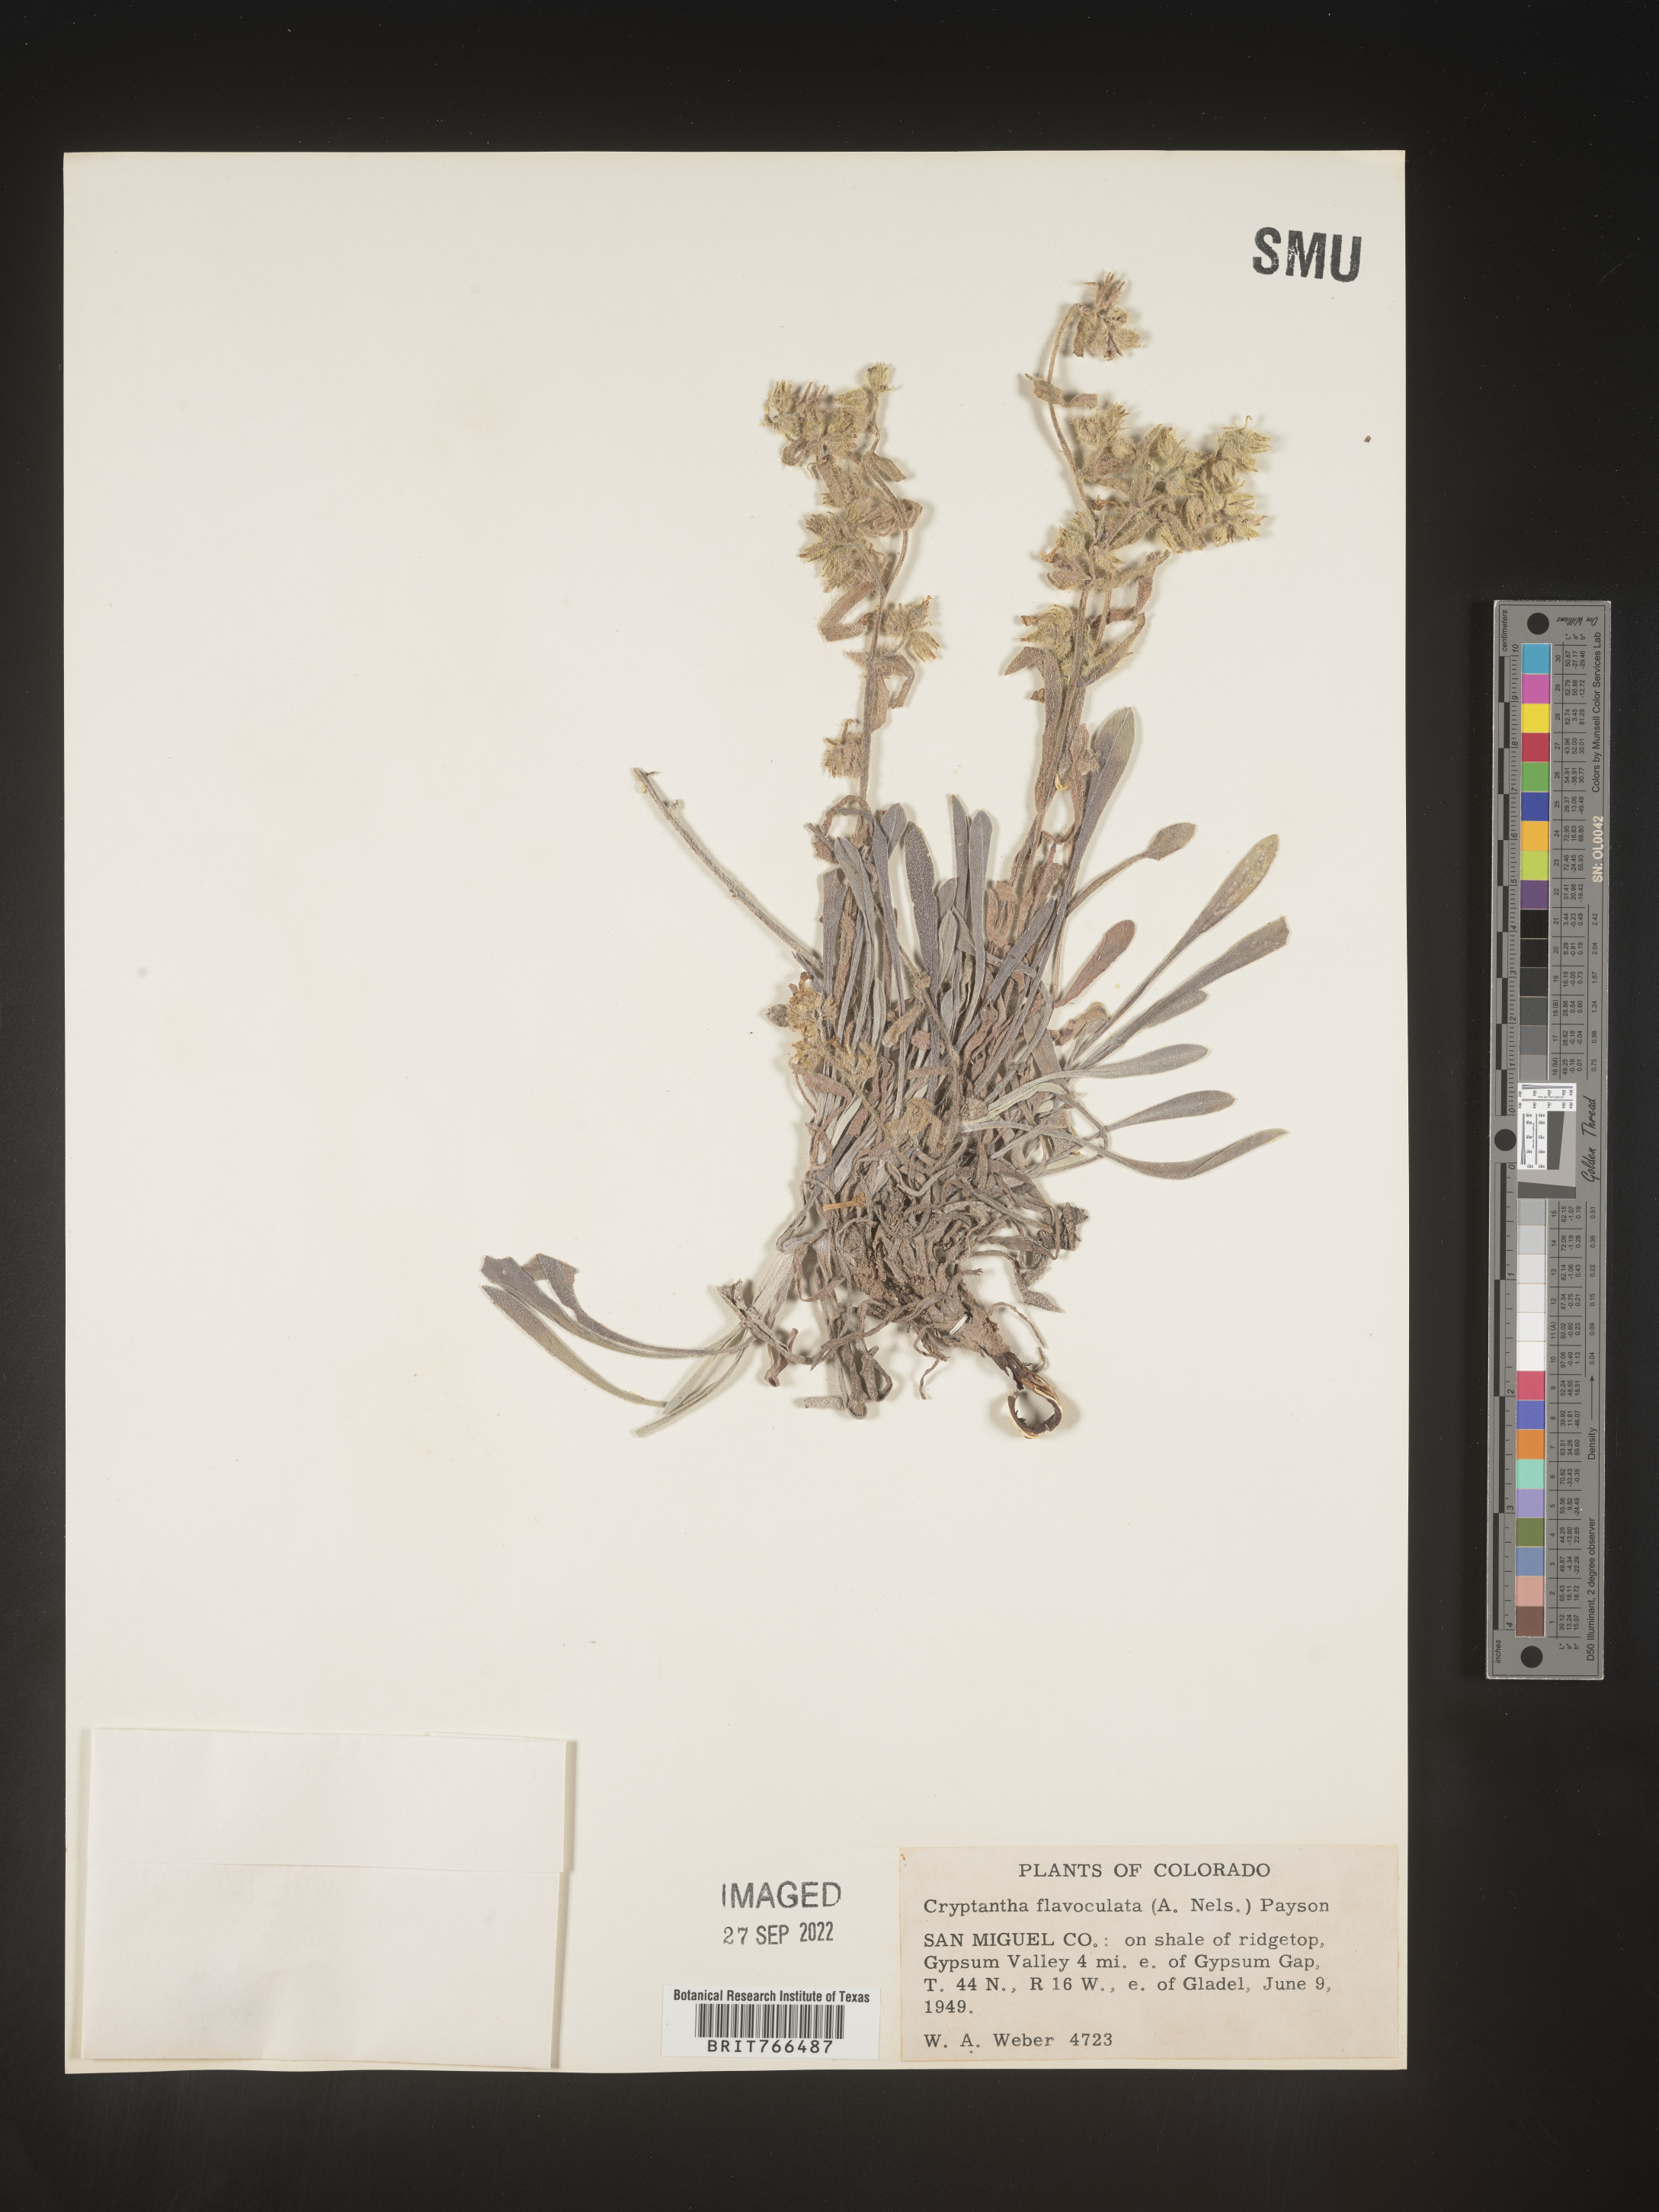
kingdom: Plantae
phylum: Tracheophyta
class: Magnoliopsida
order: Boraginales
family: Boraginaceae
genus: Oreocarya
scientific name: Oreocarya flavoculata
